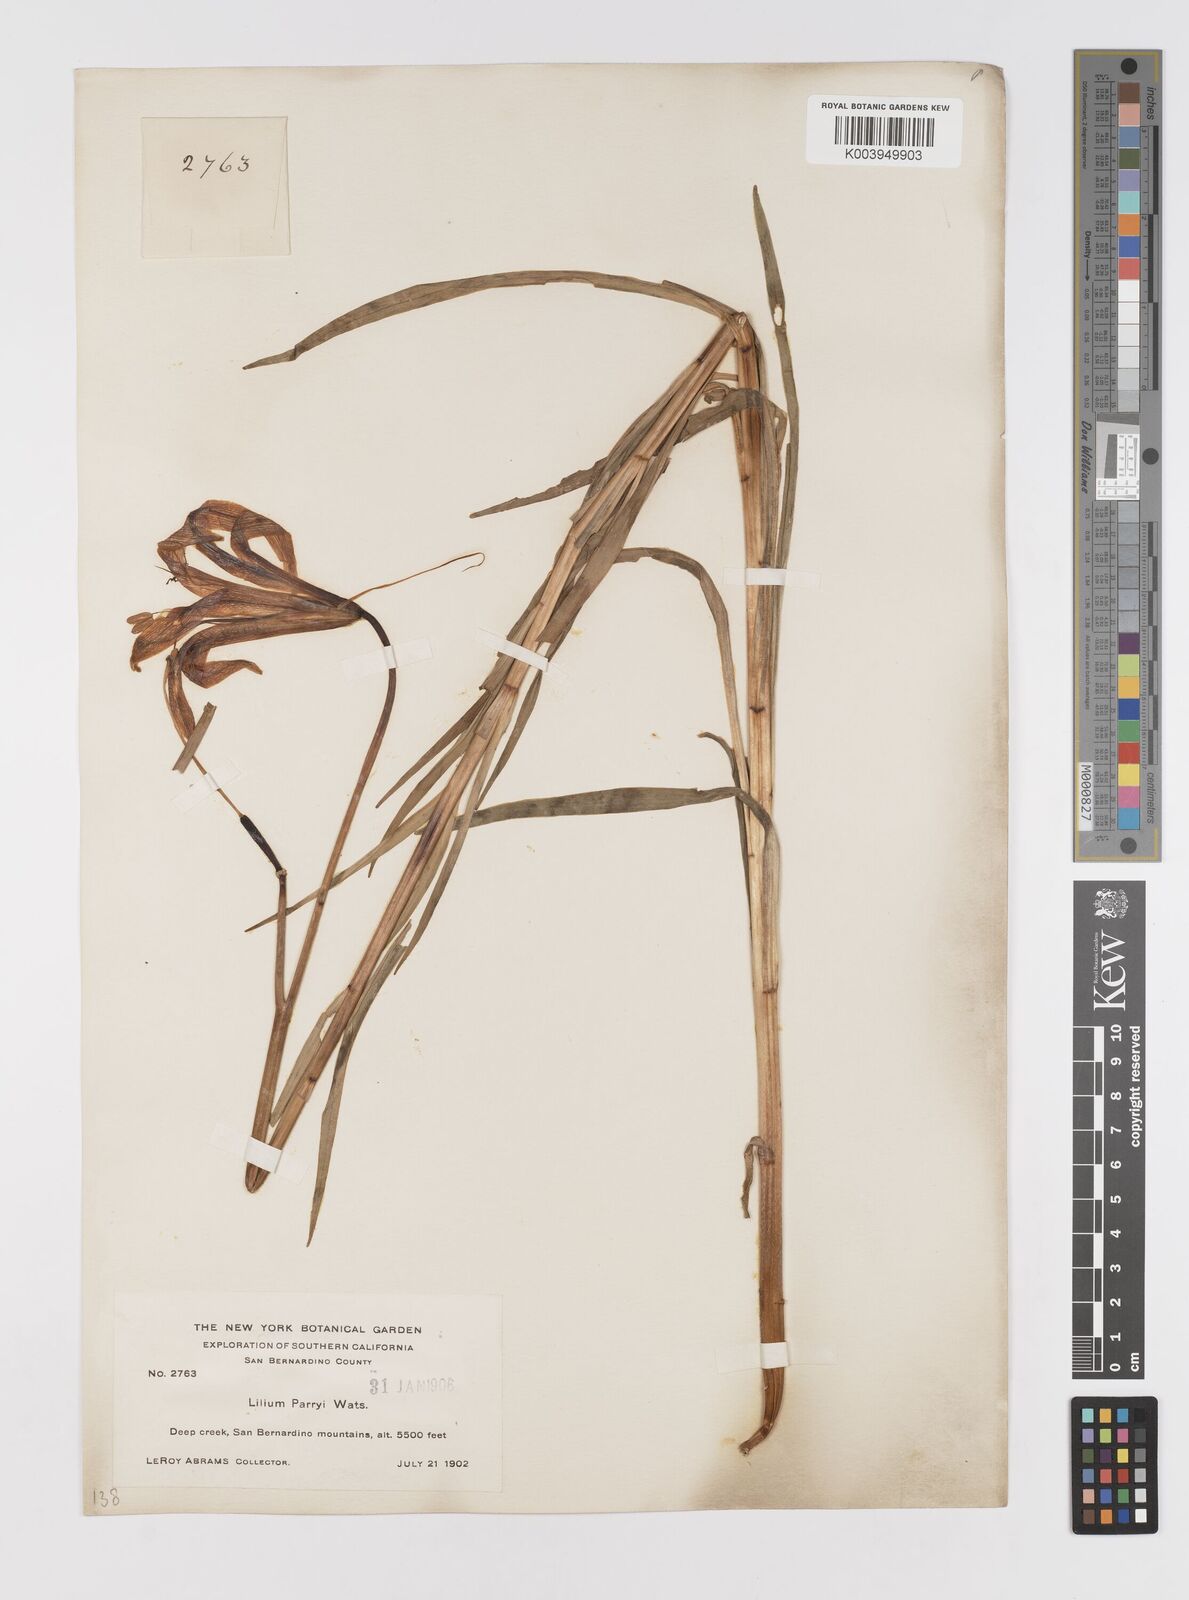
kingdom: Plantae
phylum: Tracheophyta
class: Liliopsida
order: Liliales
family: Liliaceae
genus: Lilium
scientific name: Lilium parryi
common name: Lemon lily
